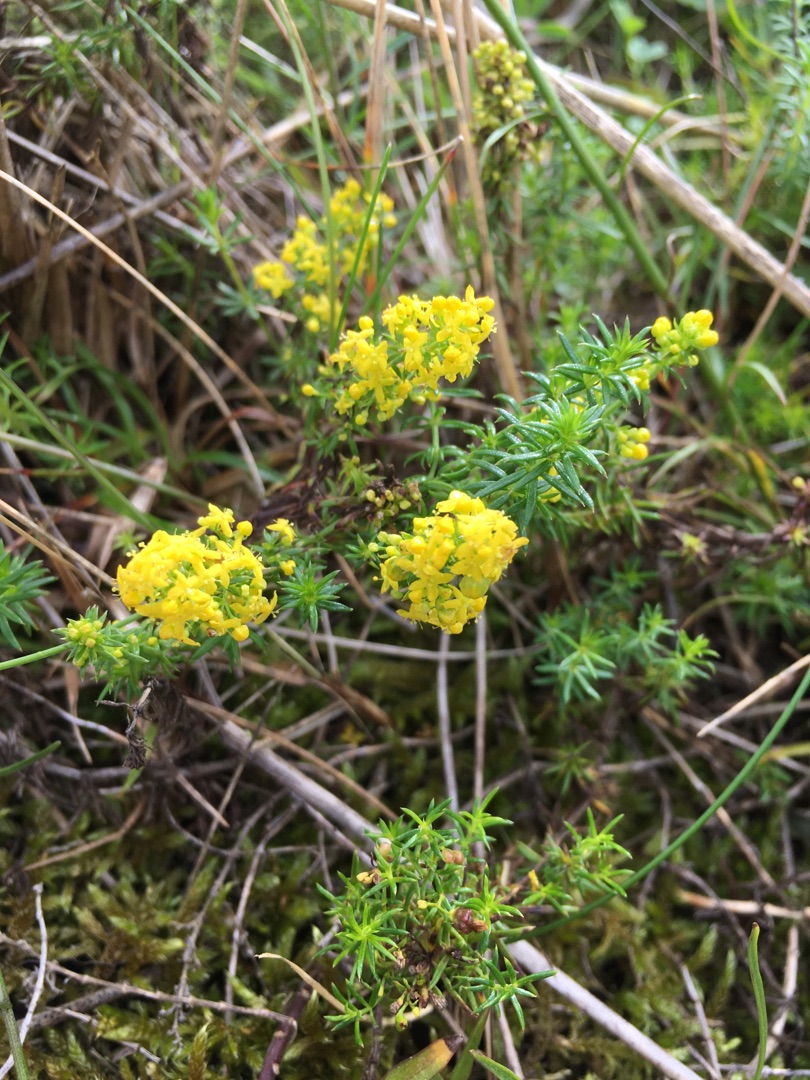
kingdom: Plantae
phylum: Tracheophyta
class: Magnoliopsida
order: Gentianales
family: Rubiaceae
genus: Galium
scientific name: Galium verum
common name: Gul snerre
